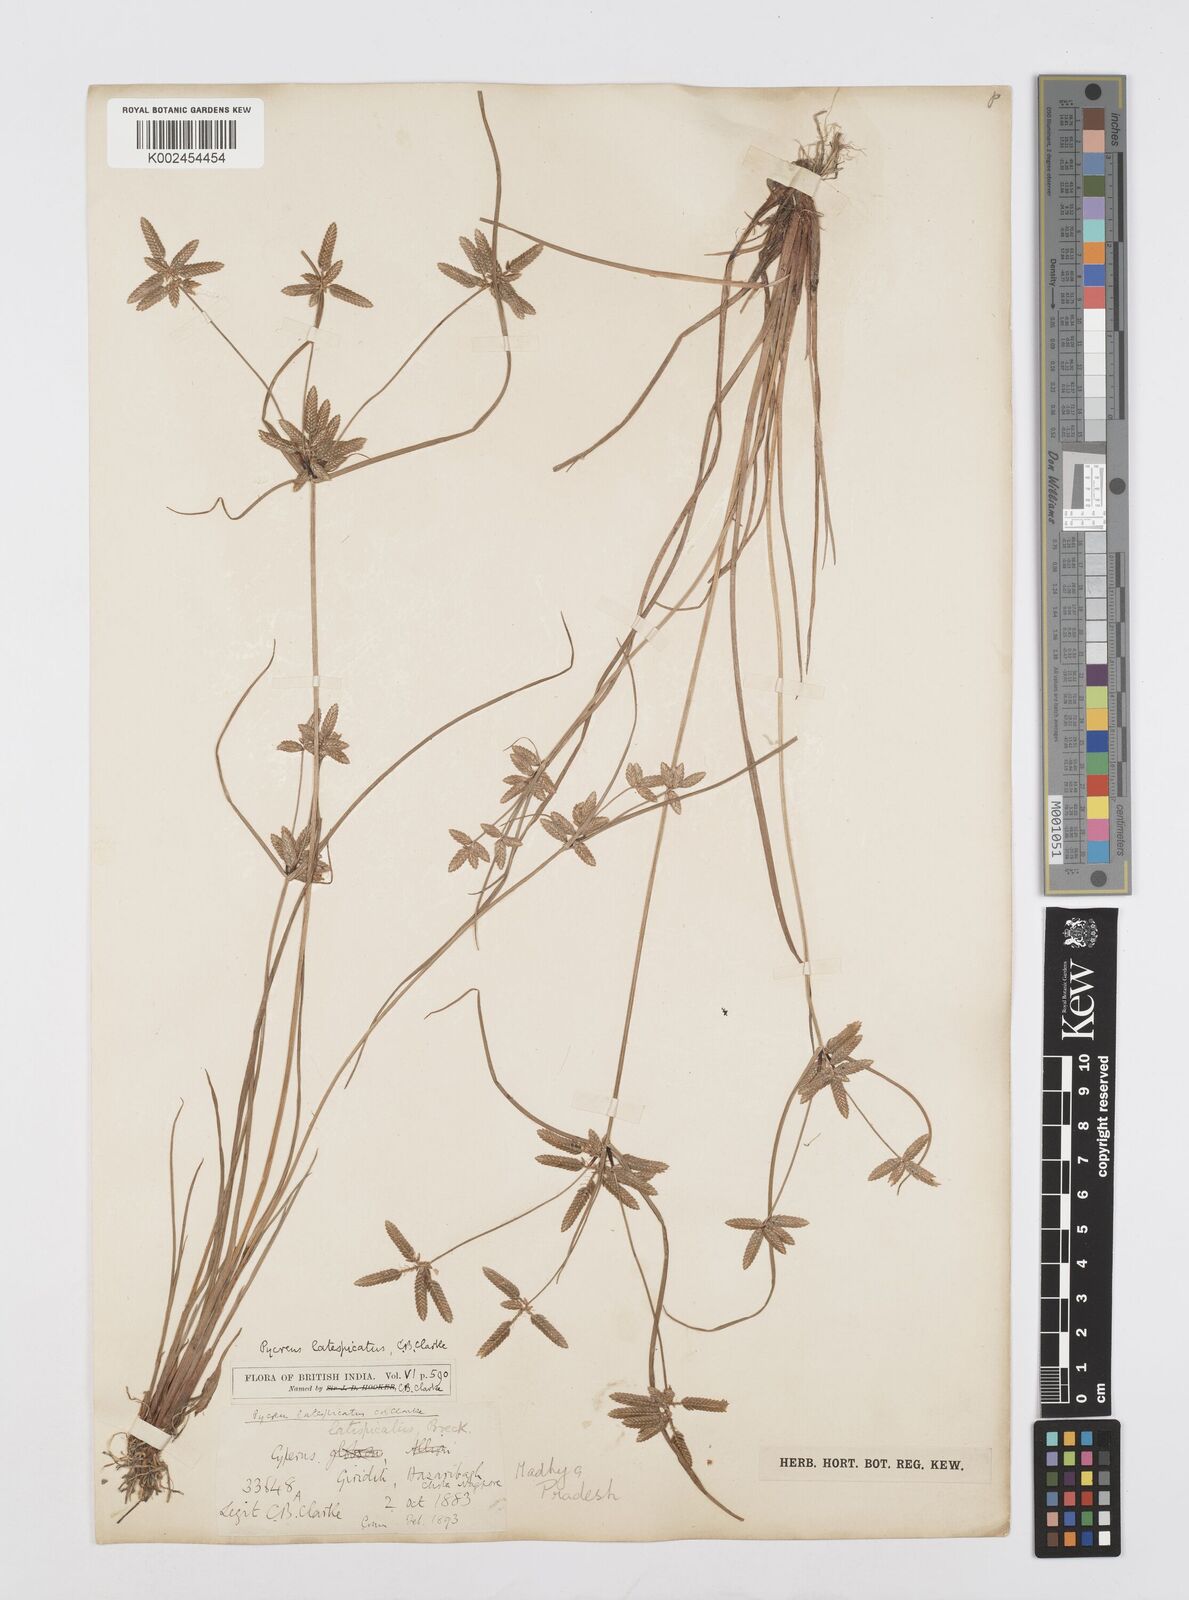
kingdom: Plantae
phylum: Tracheophyta
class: Liliopsida
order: Poales
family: Cyperaceae
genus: Cyperus
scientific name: Cyperus diaphanus
